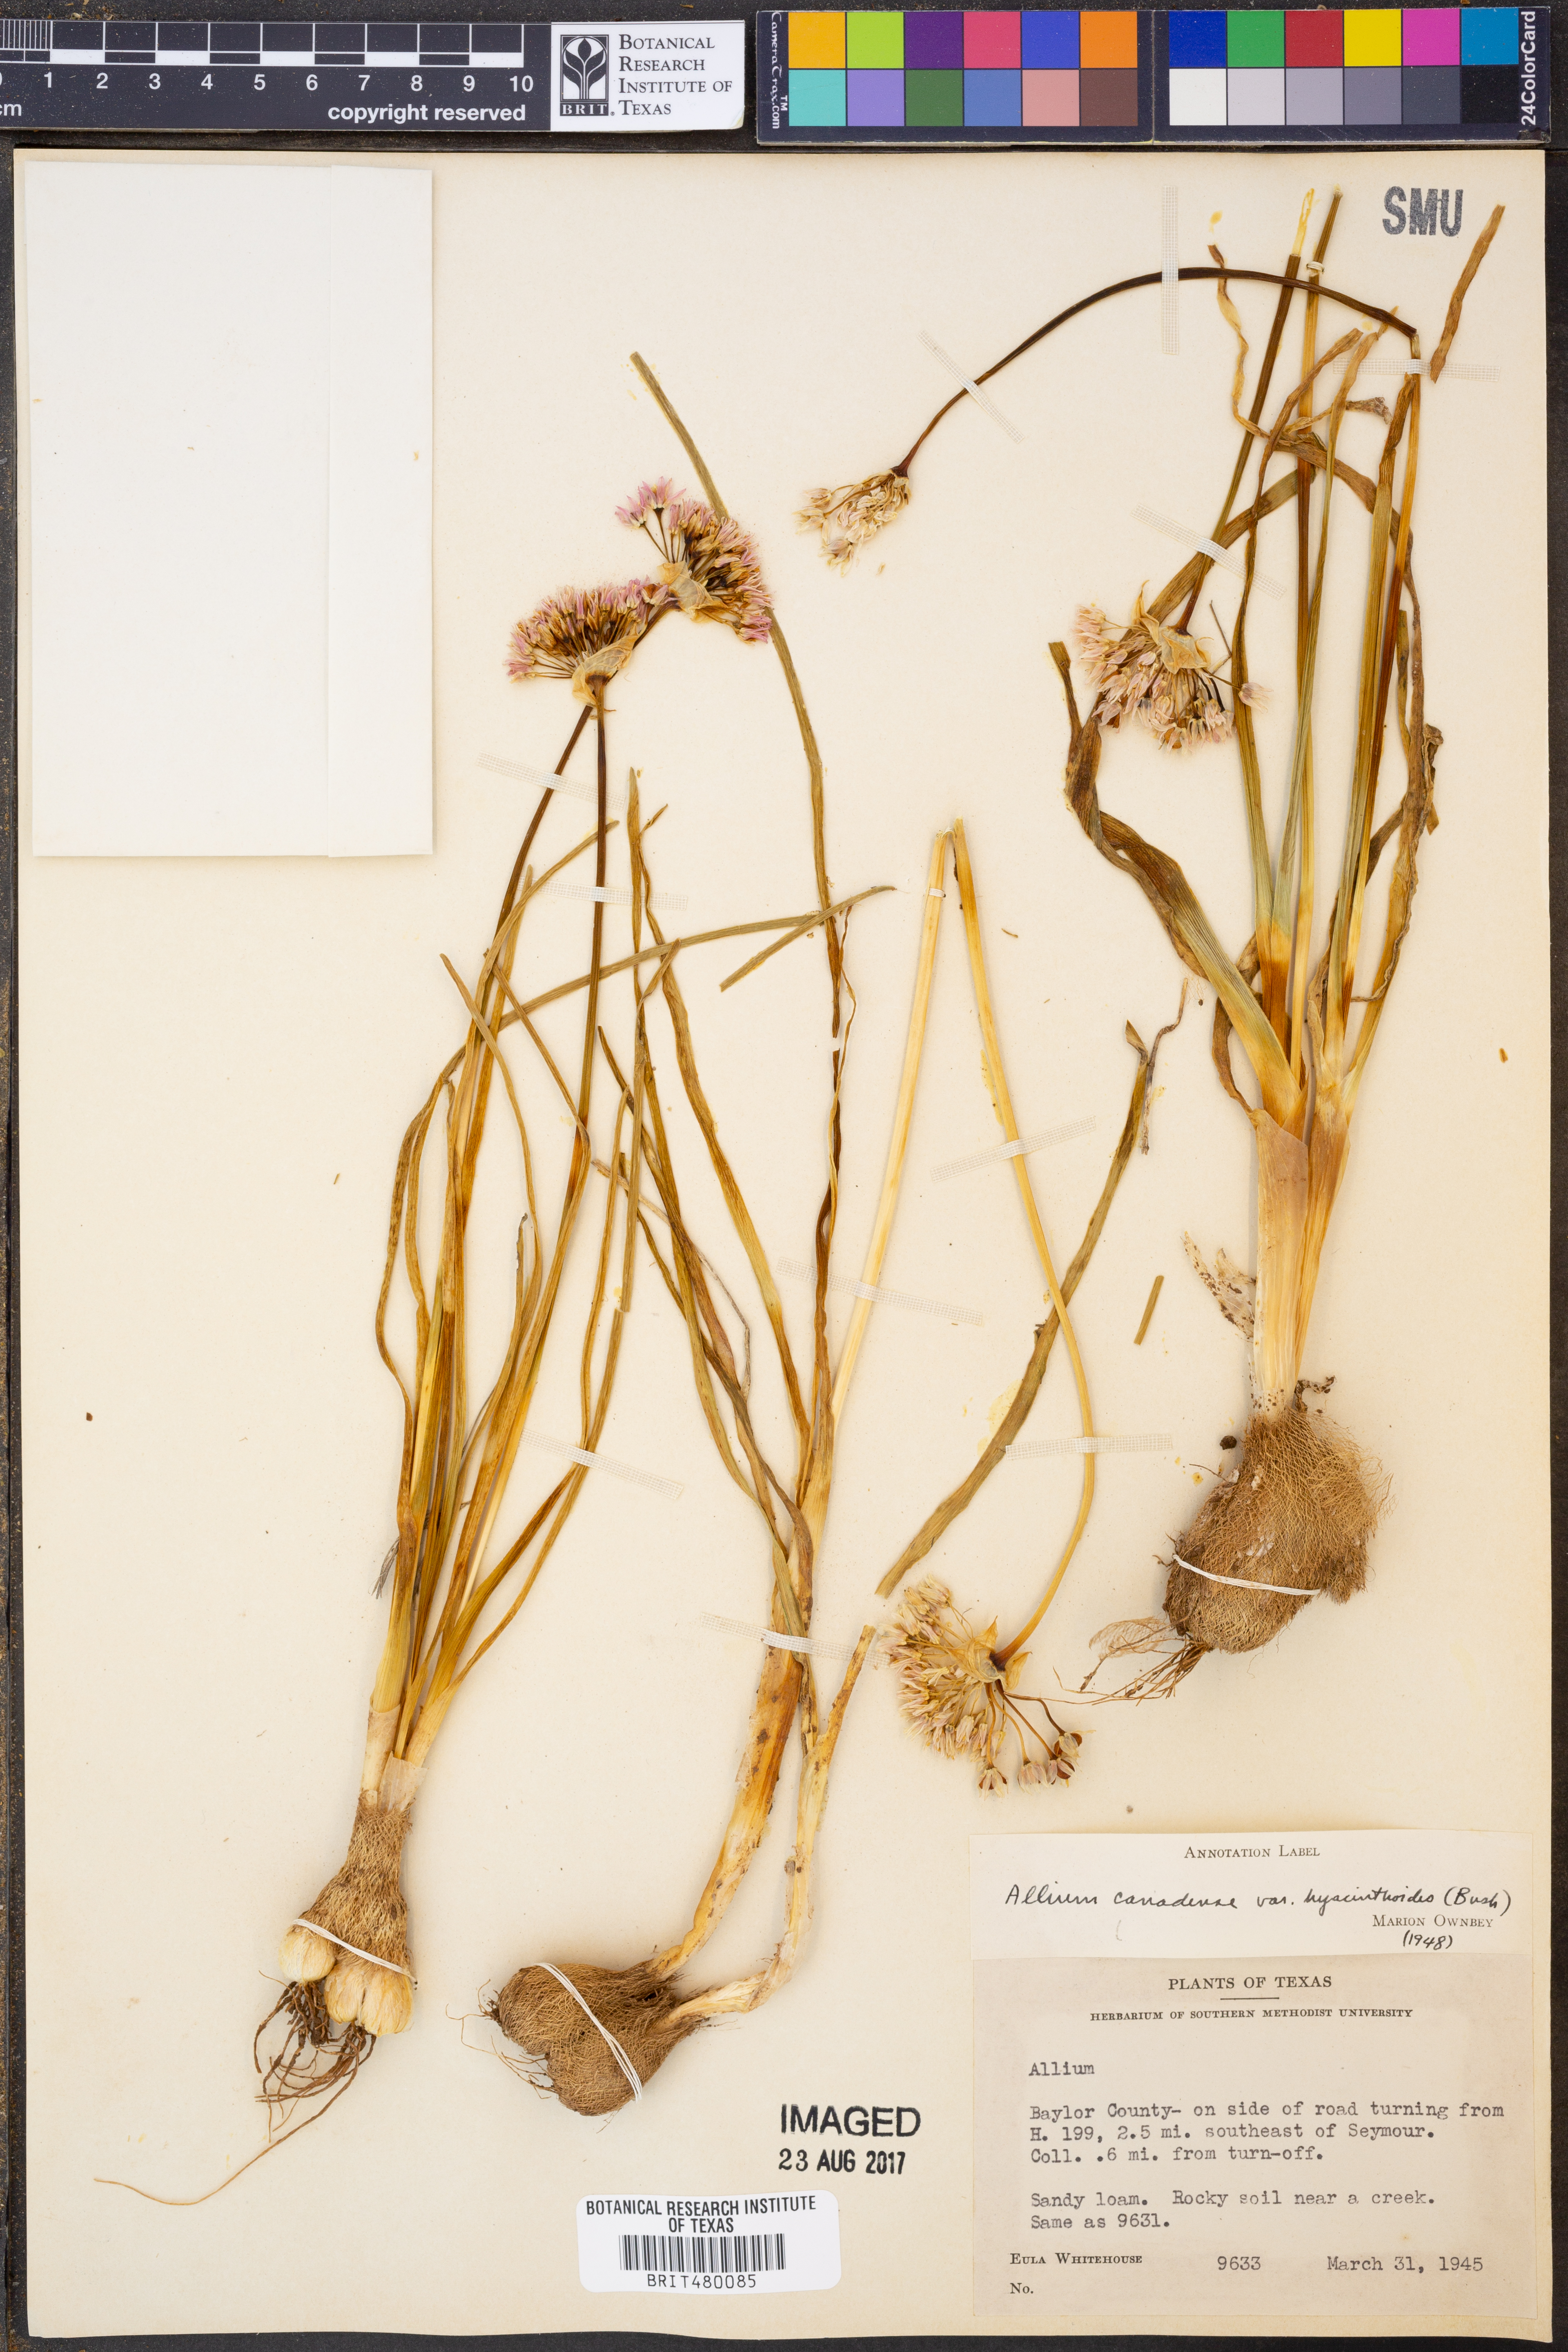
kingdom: Plantae
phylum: Tracheophyta
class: Liliopsida
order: Asparagales
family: Amaryllidaceae
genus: Allium
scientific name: Allium canadense
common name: Meadow garlic
